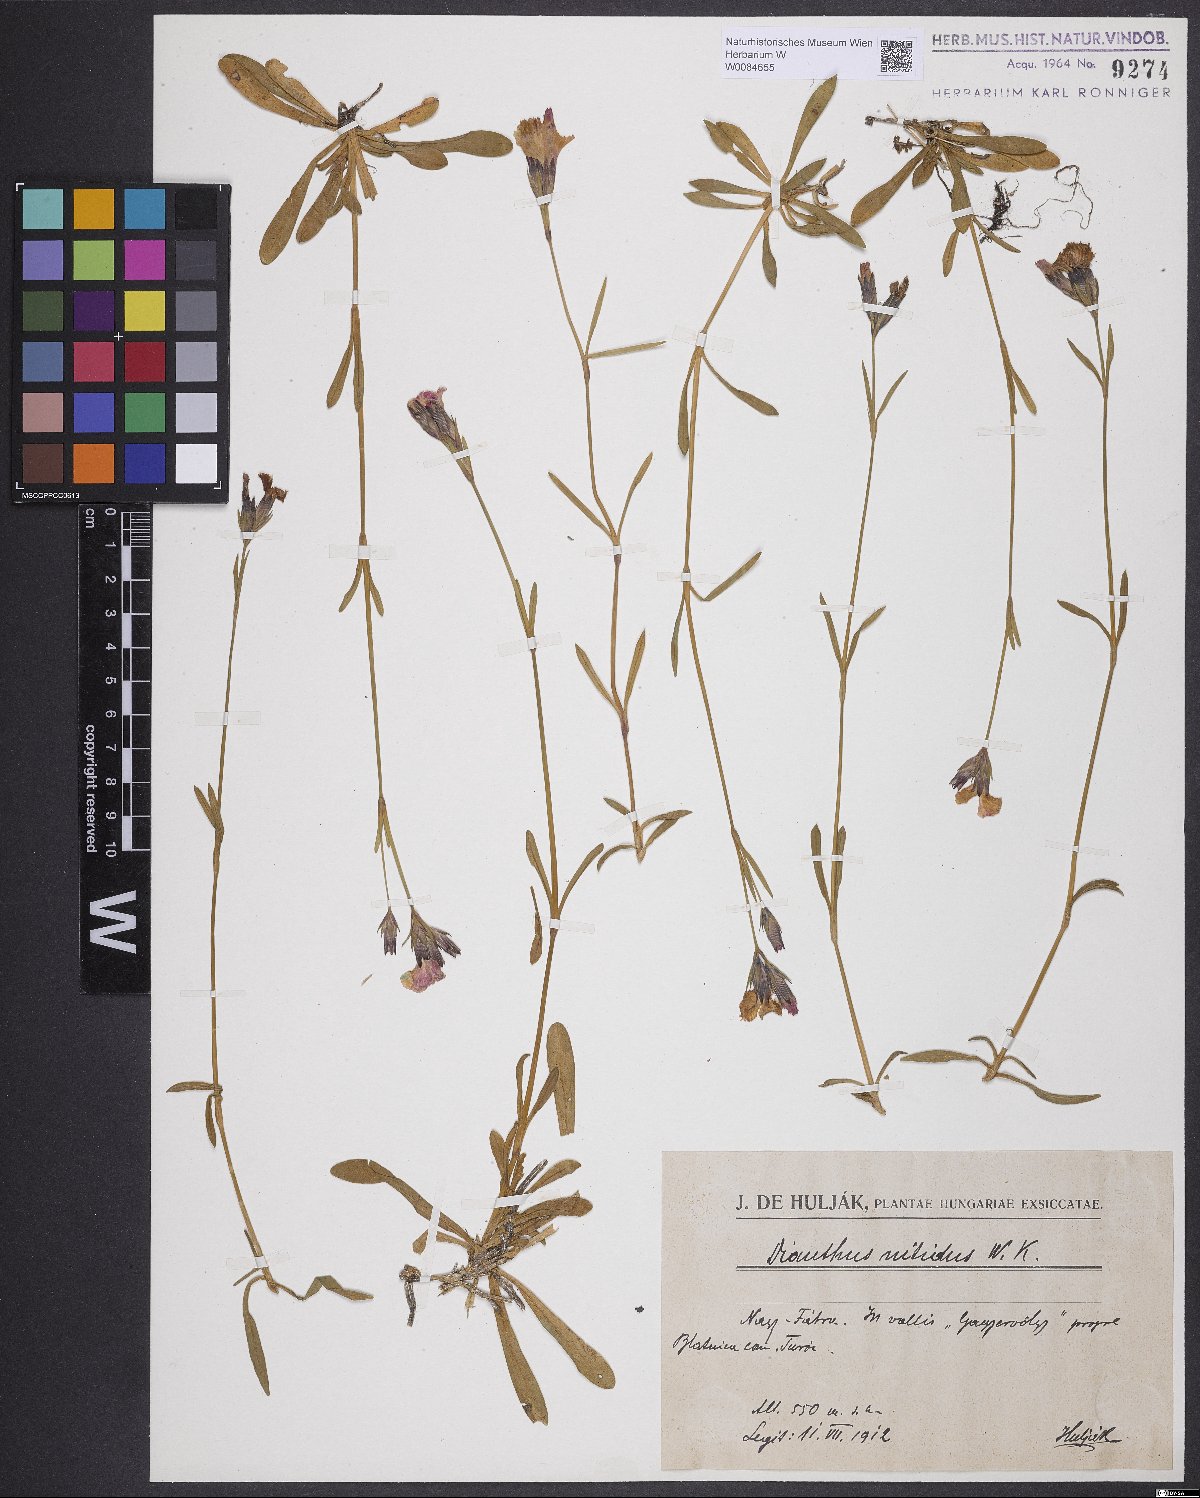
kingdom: Plantae
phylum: Tracheophyta
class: Magnoliopsida
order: Caryophyllales
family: Caryophyllaceae
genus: Dianthus
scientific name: Dianthus plumarius
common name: Pink
